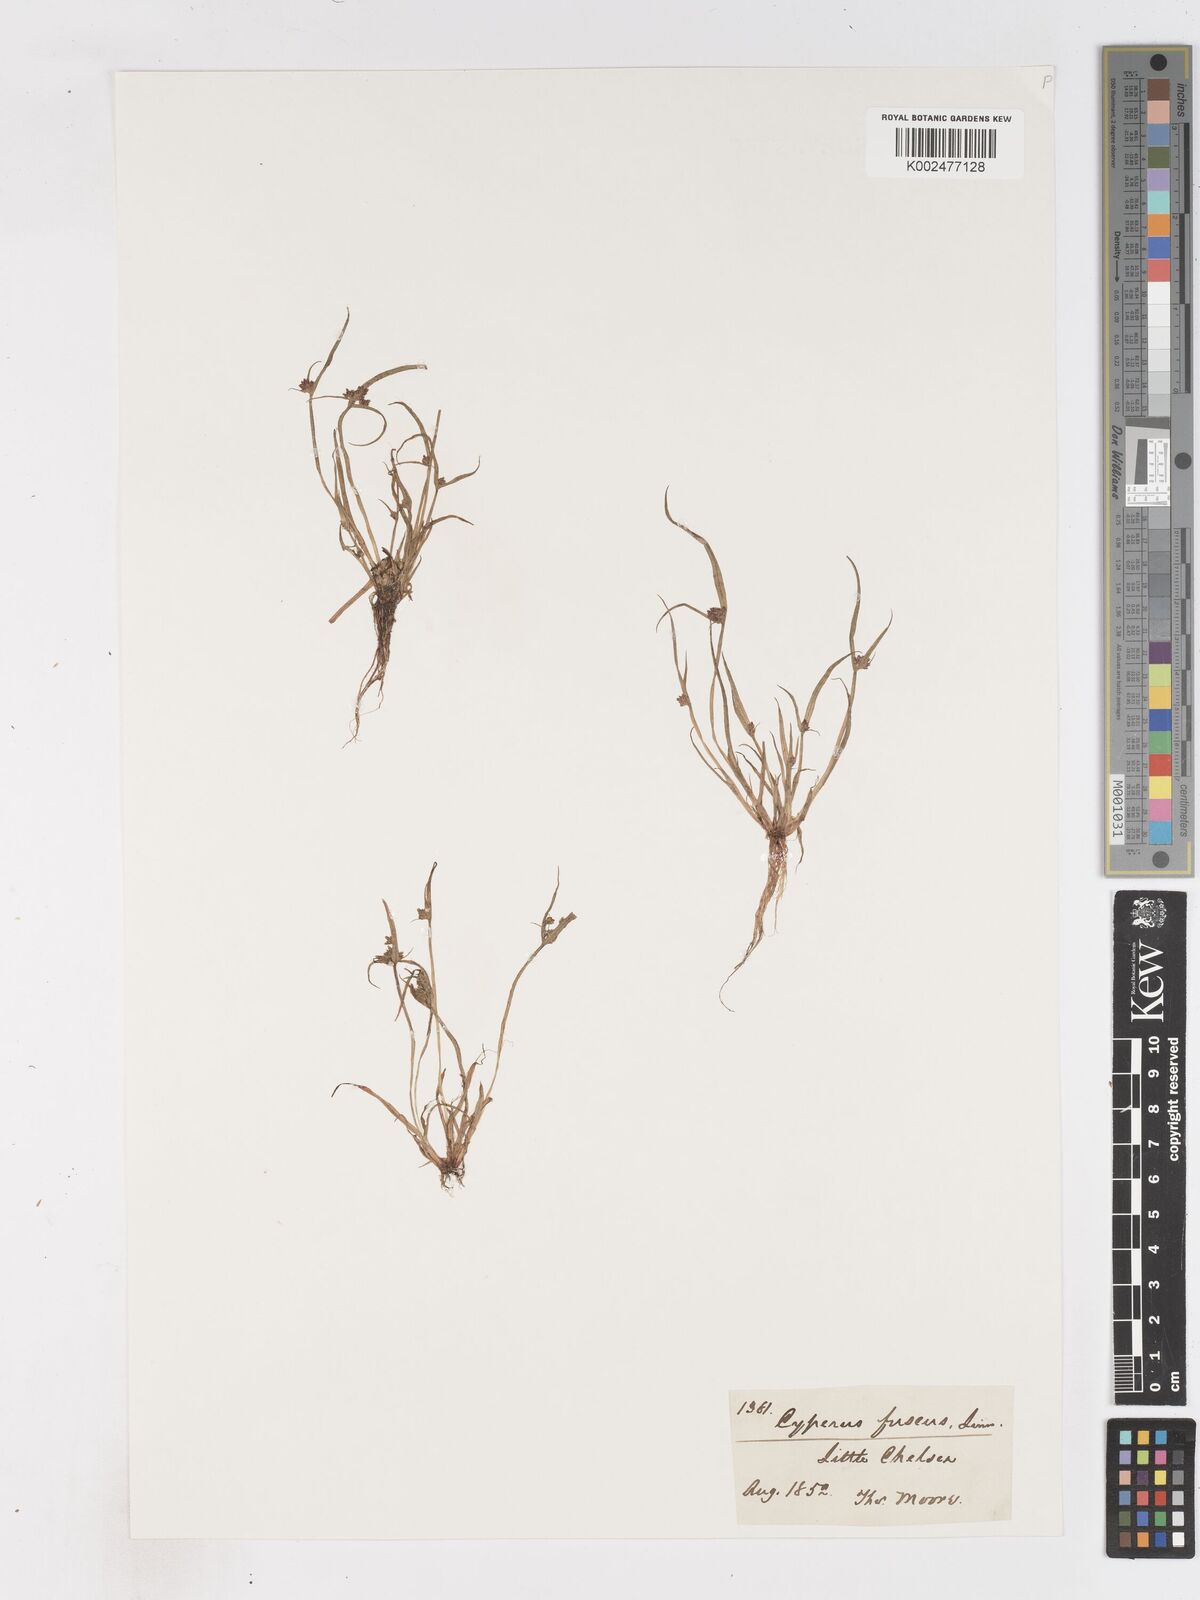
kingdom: Plantae
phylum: Tracheophyta
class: Liliopsida
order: Poales
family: Cyperaceae
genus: Cyperus
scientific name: Cyperus fuscus
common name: Brown galingale
